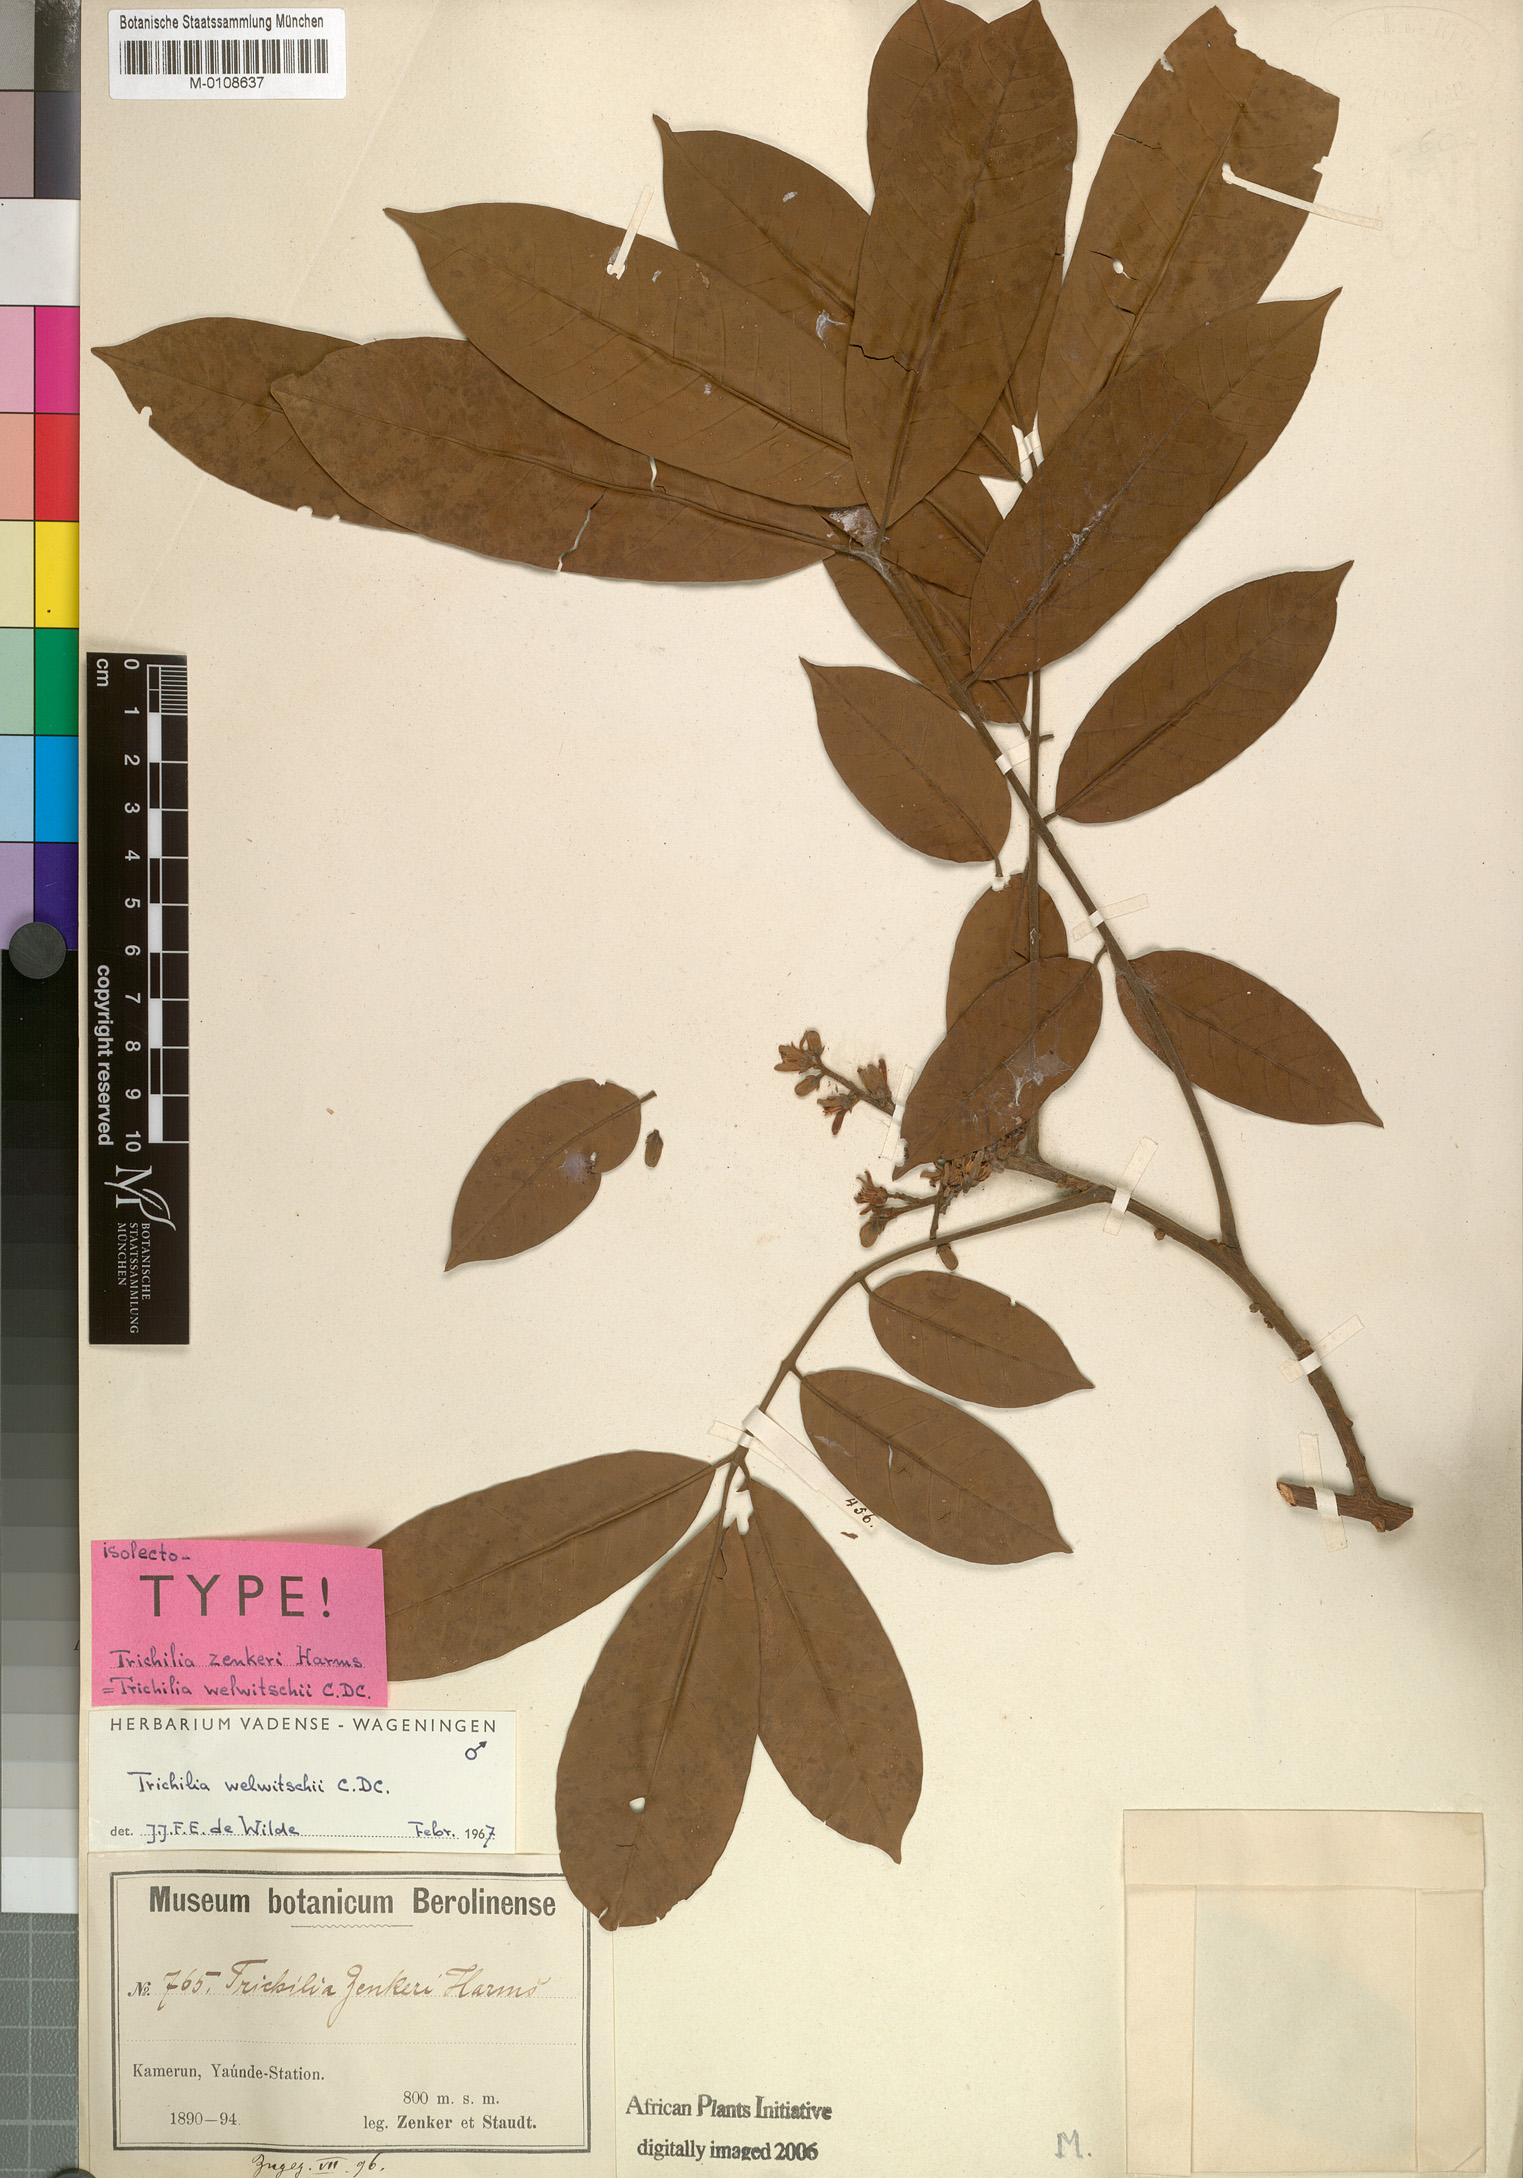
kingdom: Plantae
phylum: Tracheophyta
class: Magnoliopsida
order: Sapindales
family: Meliaceae
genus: Trichilia
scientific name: Trichilia welwitschii
